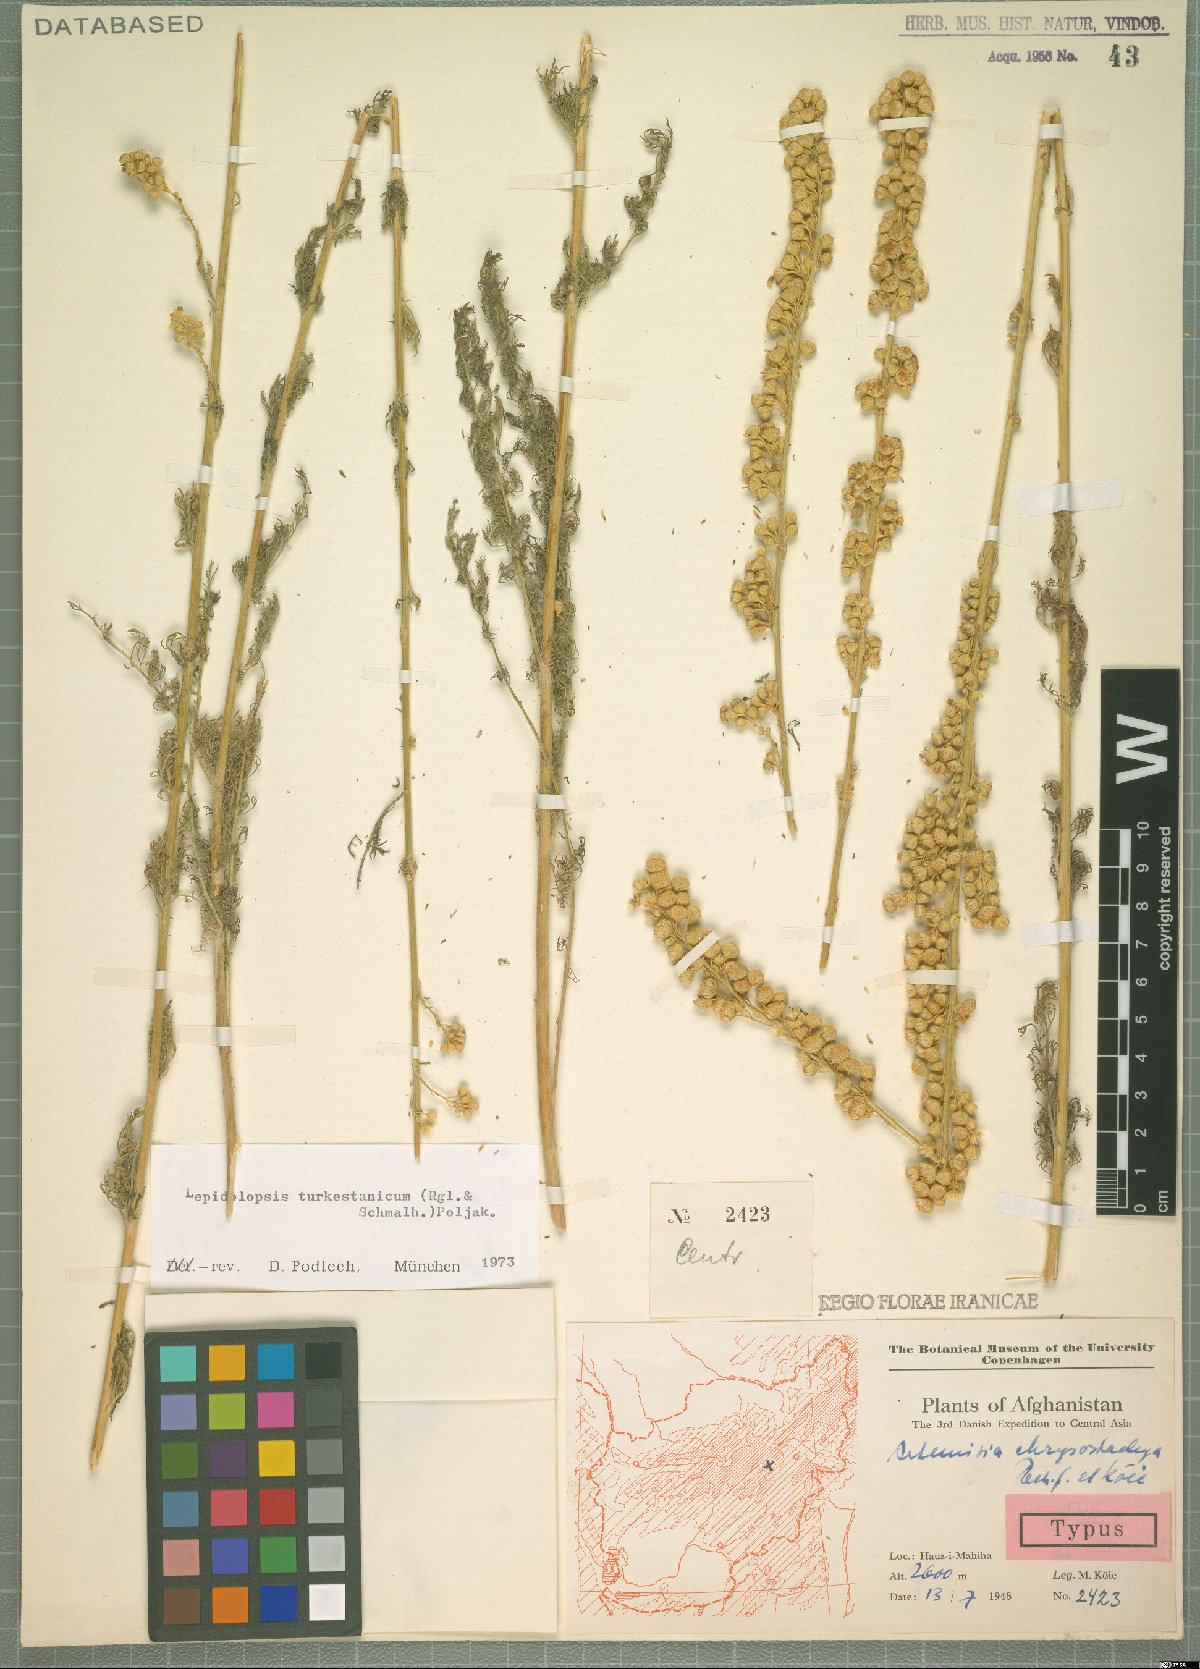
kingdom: Plantae
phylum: Tracheophyta
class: Magnoliopsida
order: Asterales
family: Asteraceae
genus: Lepidolopsis
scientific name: Lepidolopsis turkestanica
